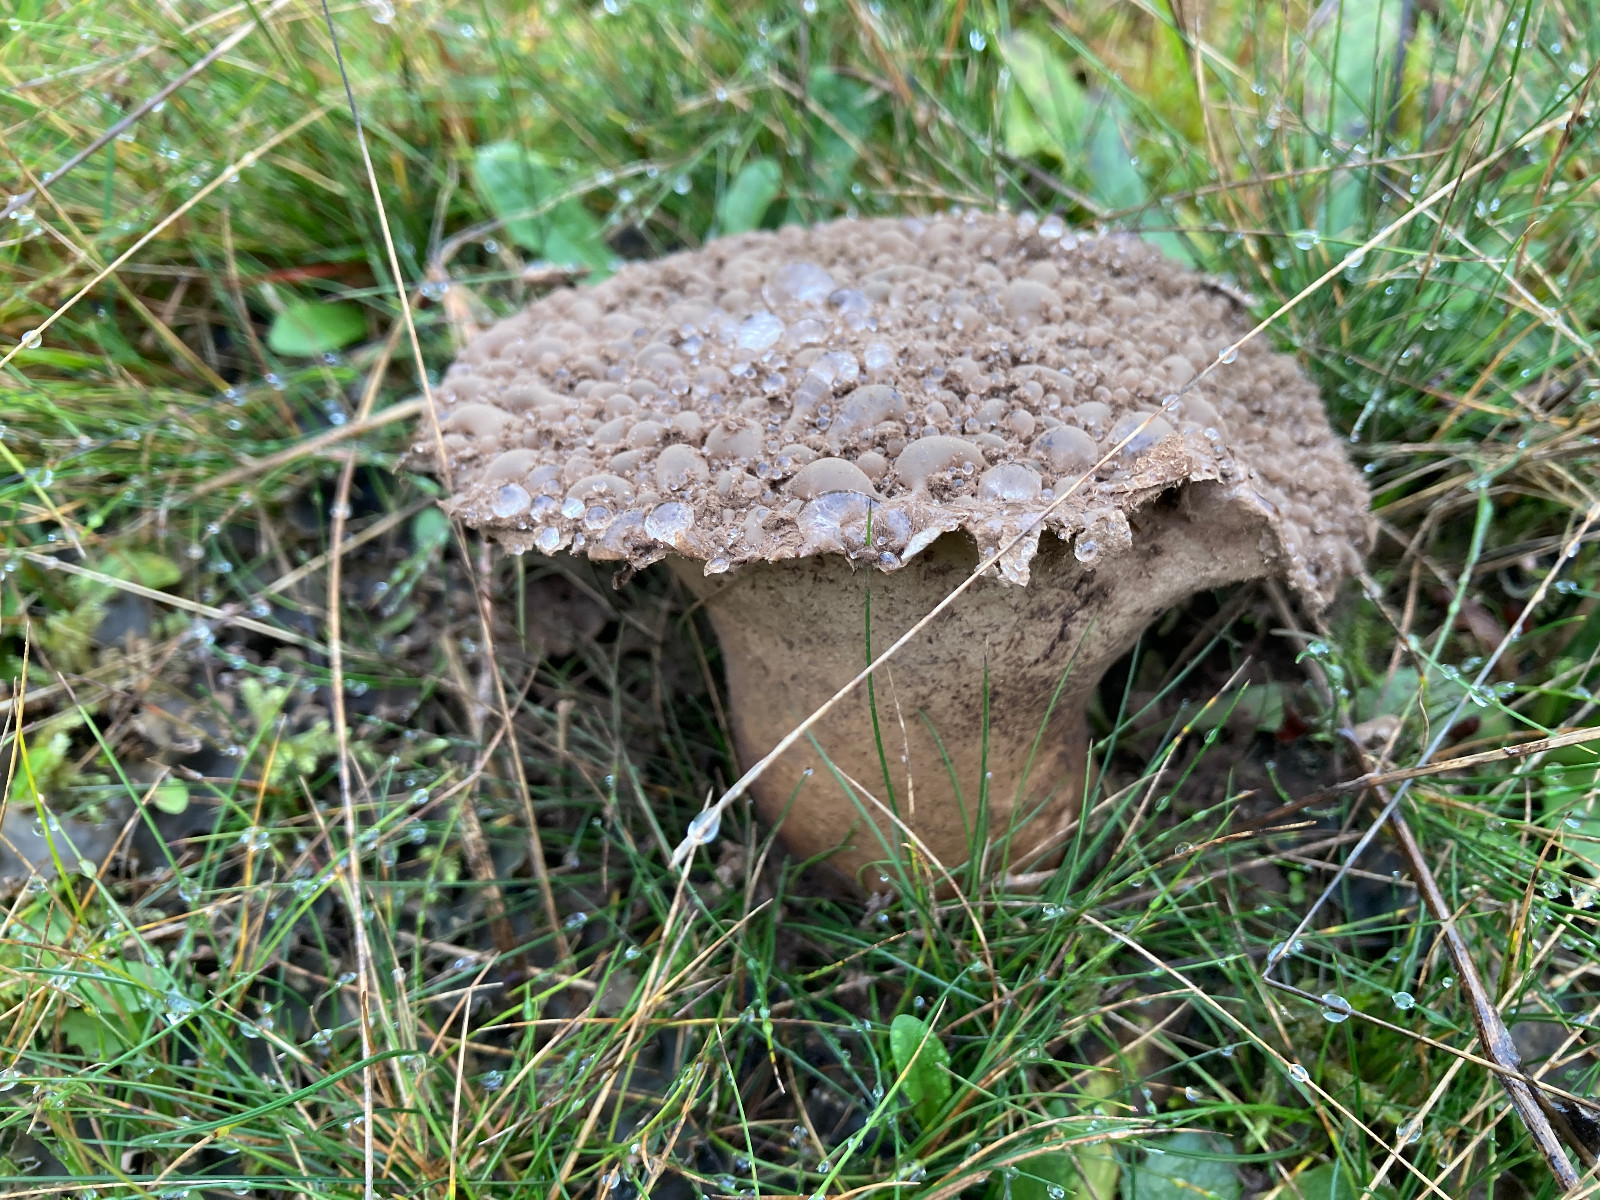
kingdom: Fungi
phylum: Basidiomycota
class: Agaricomycetes
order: Agaricales
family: Lycoperdaceae
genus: Lycoperdon
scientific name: Lycoperdon excipuliforme
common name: højstokket støvbold
